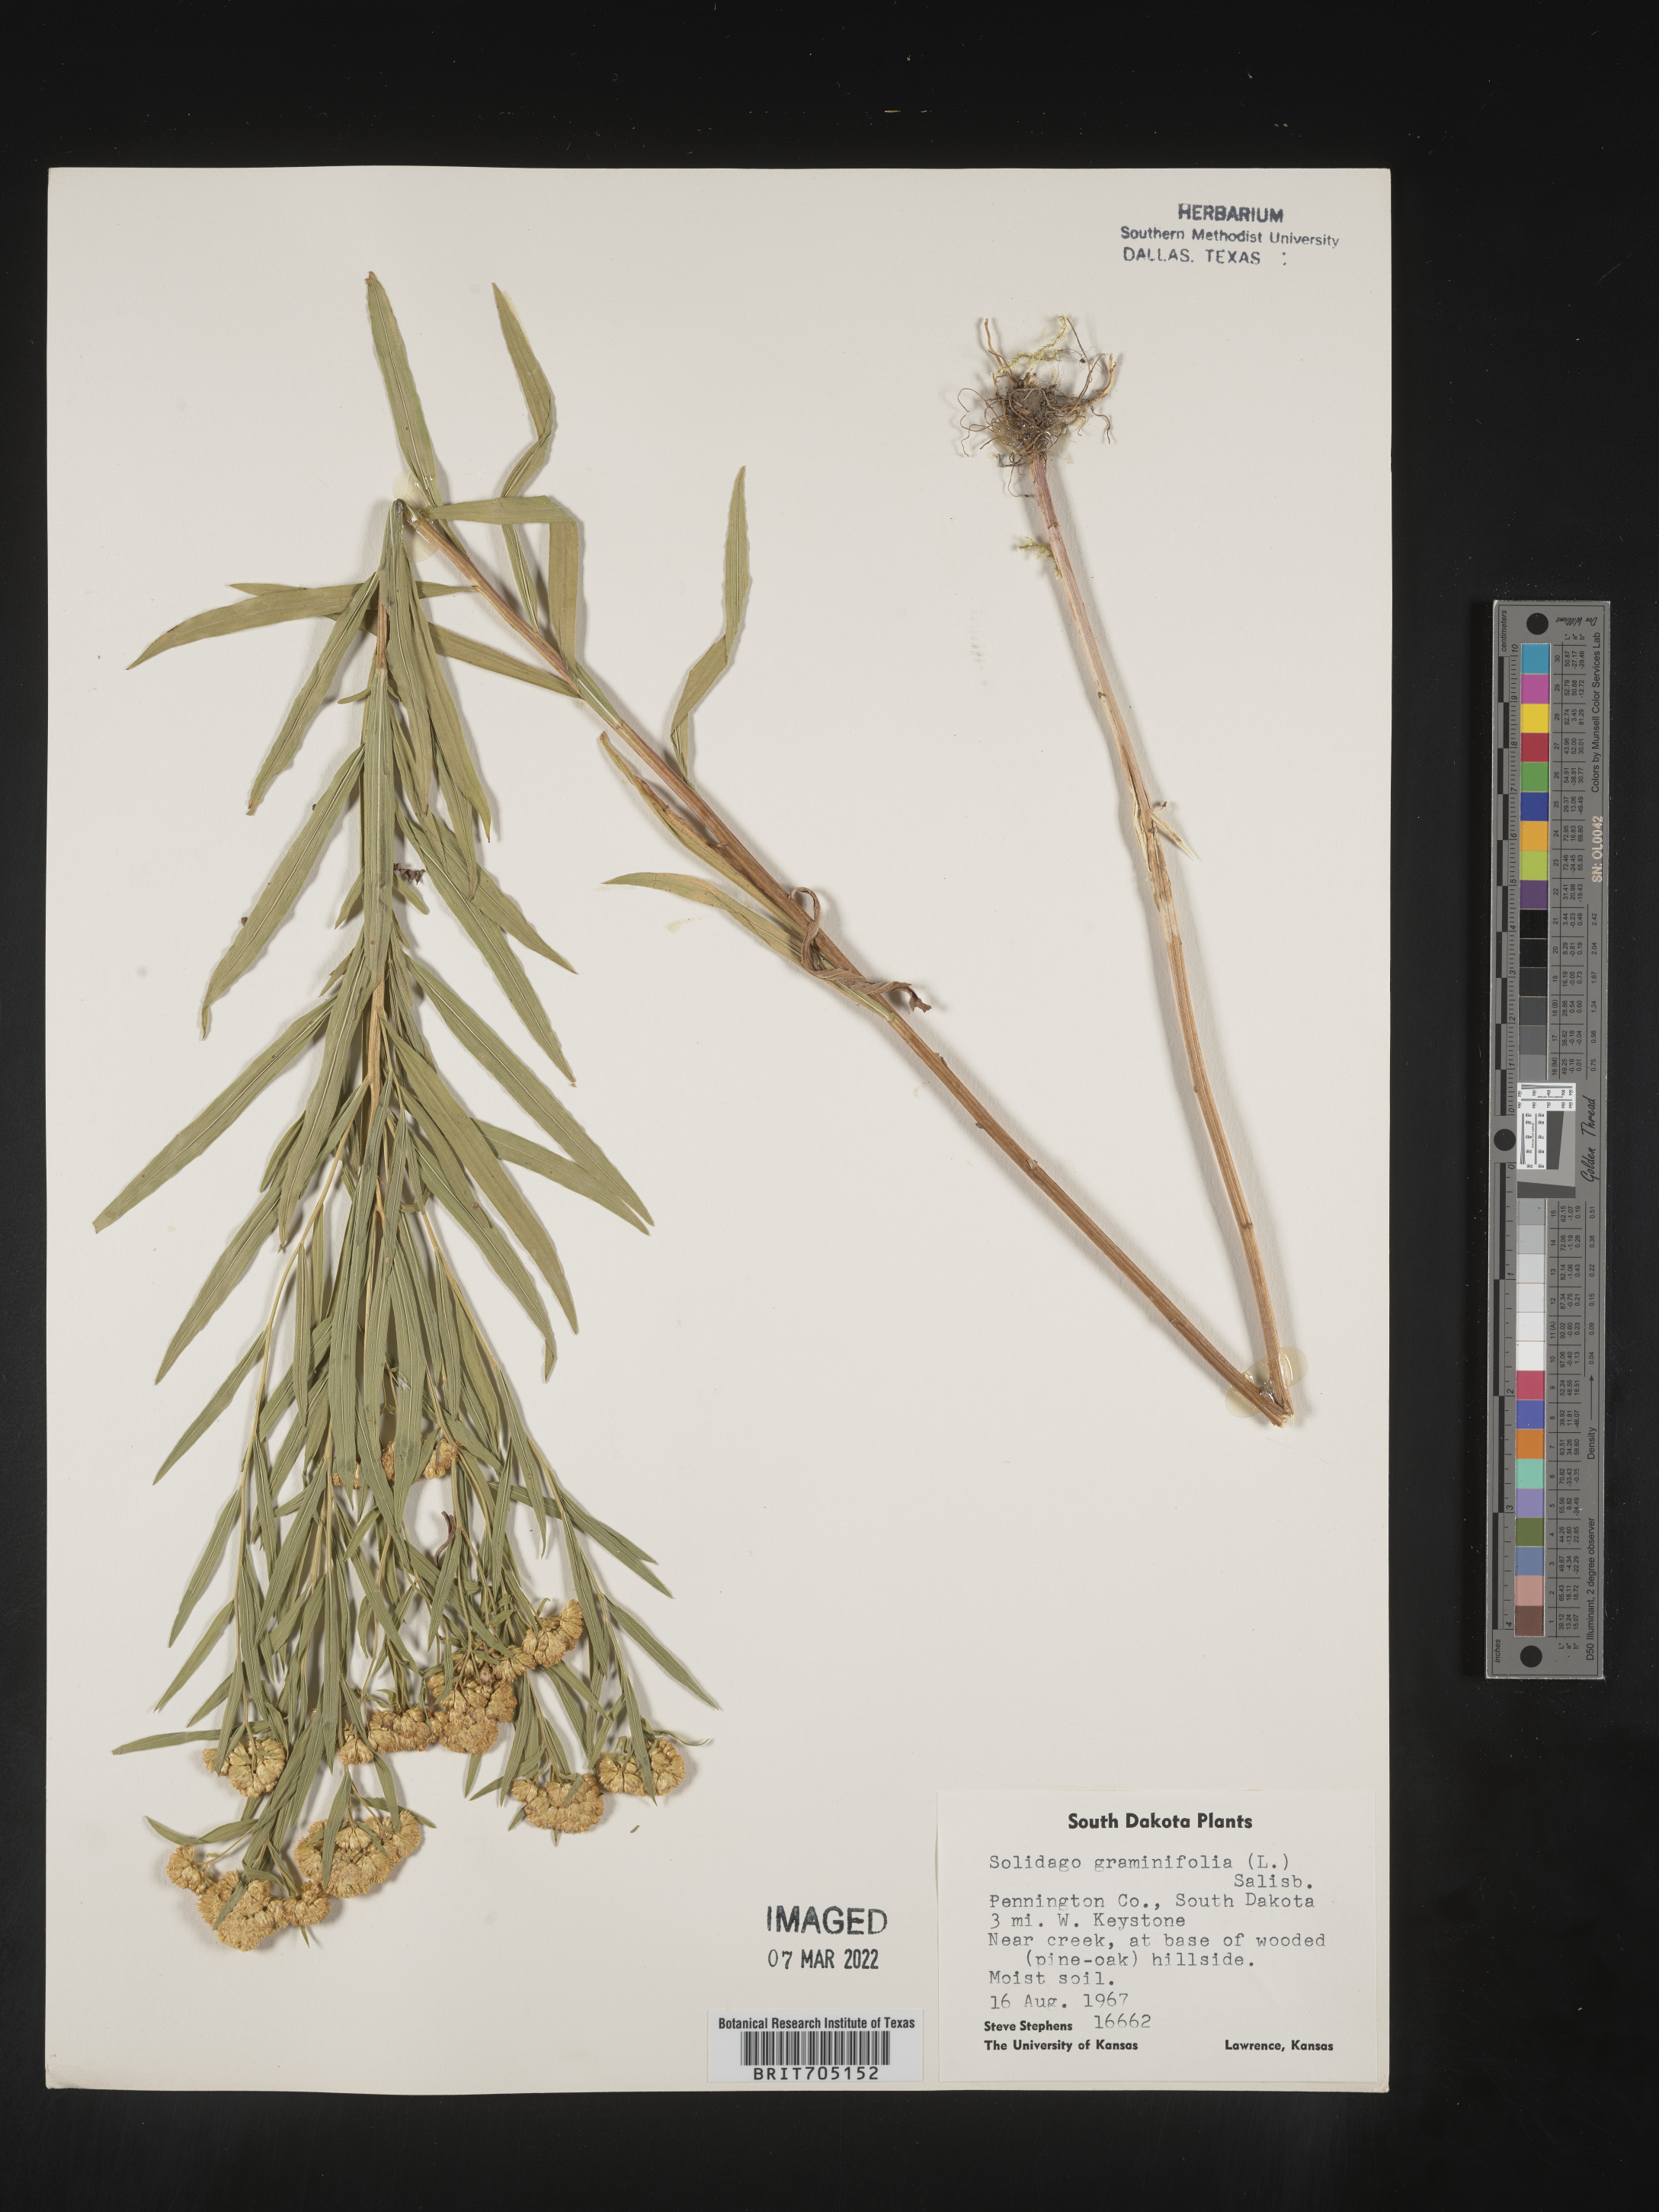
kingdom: Plantae
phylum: Tracheophyta
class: Magnoliopsida
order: Asterales
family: Asteraceae
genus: Euthamia
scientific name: Euthamia graminifolia
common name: Common goldentop
